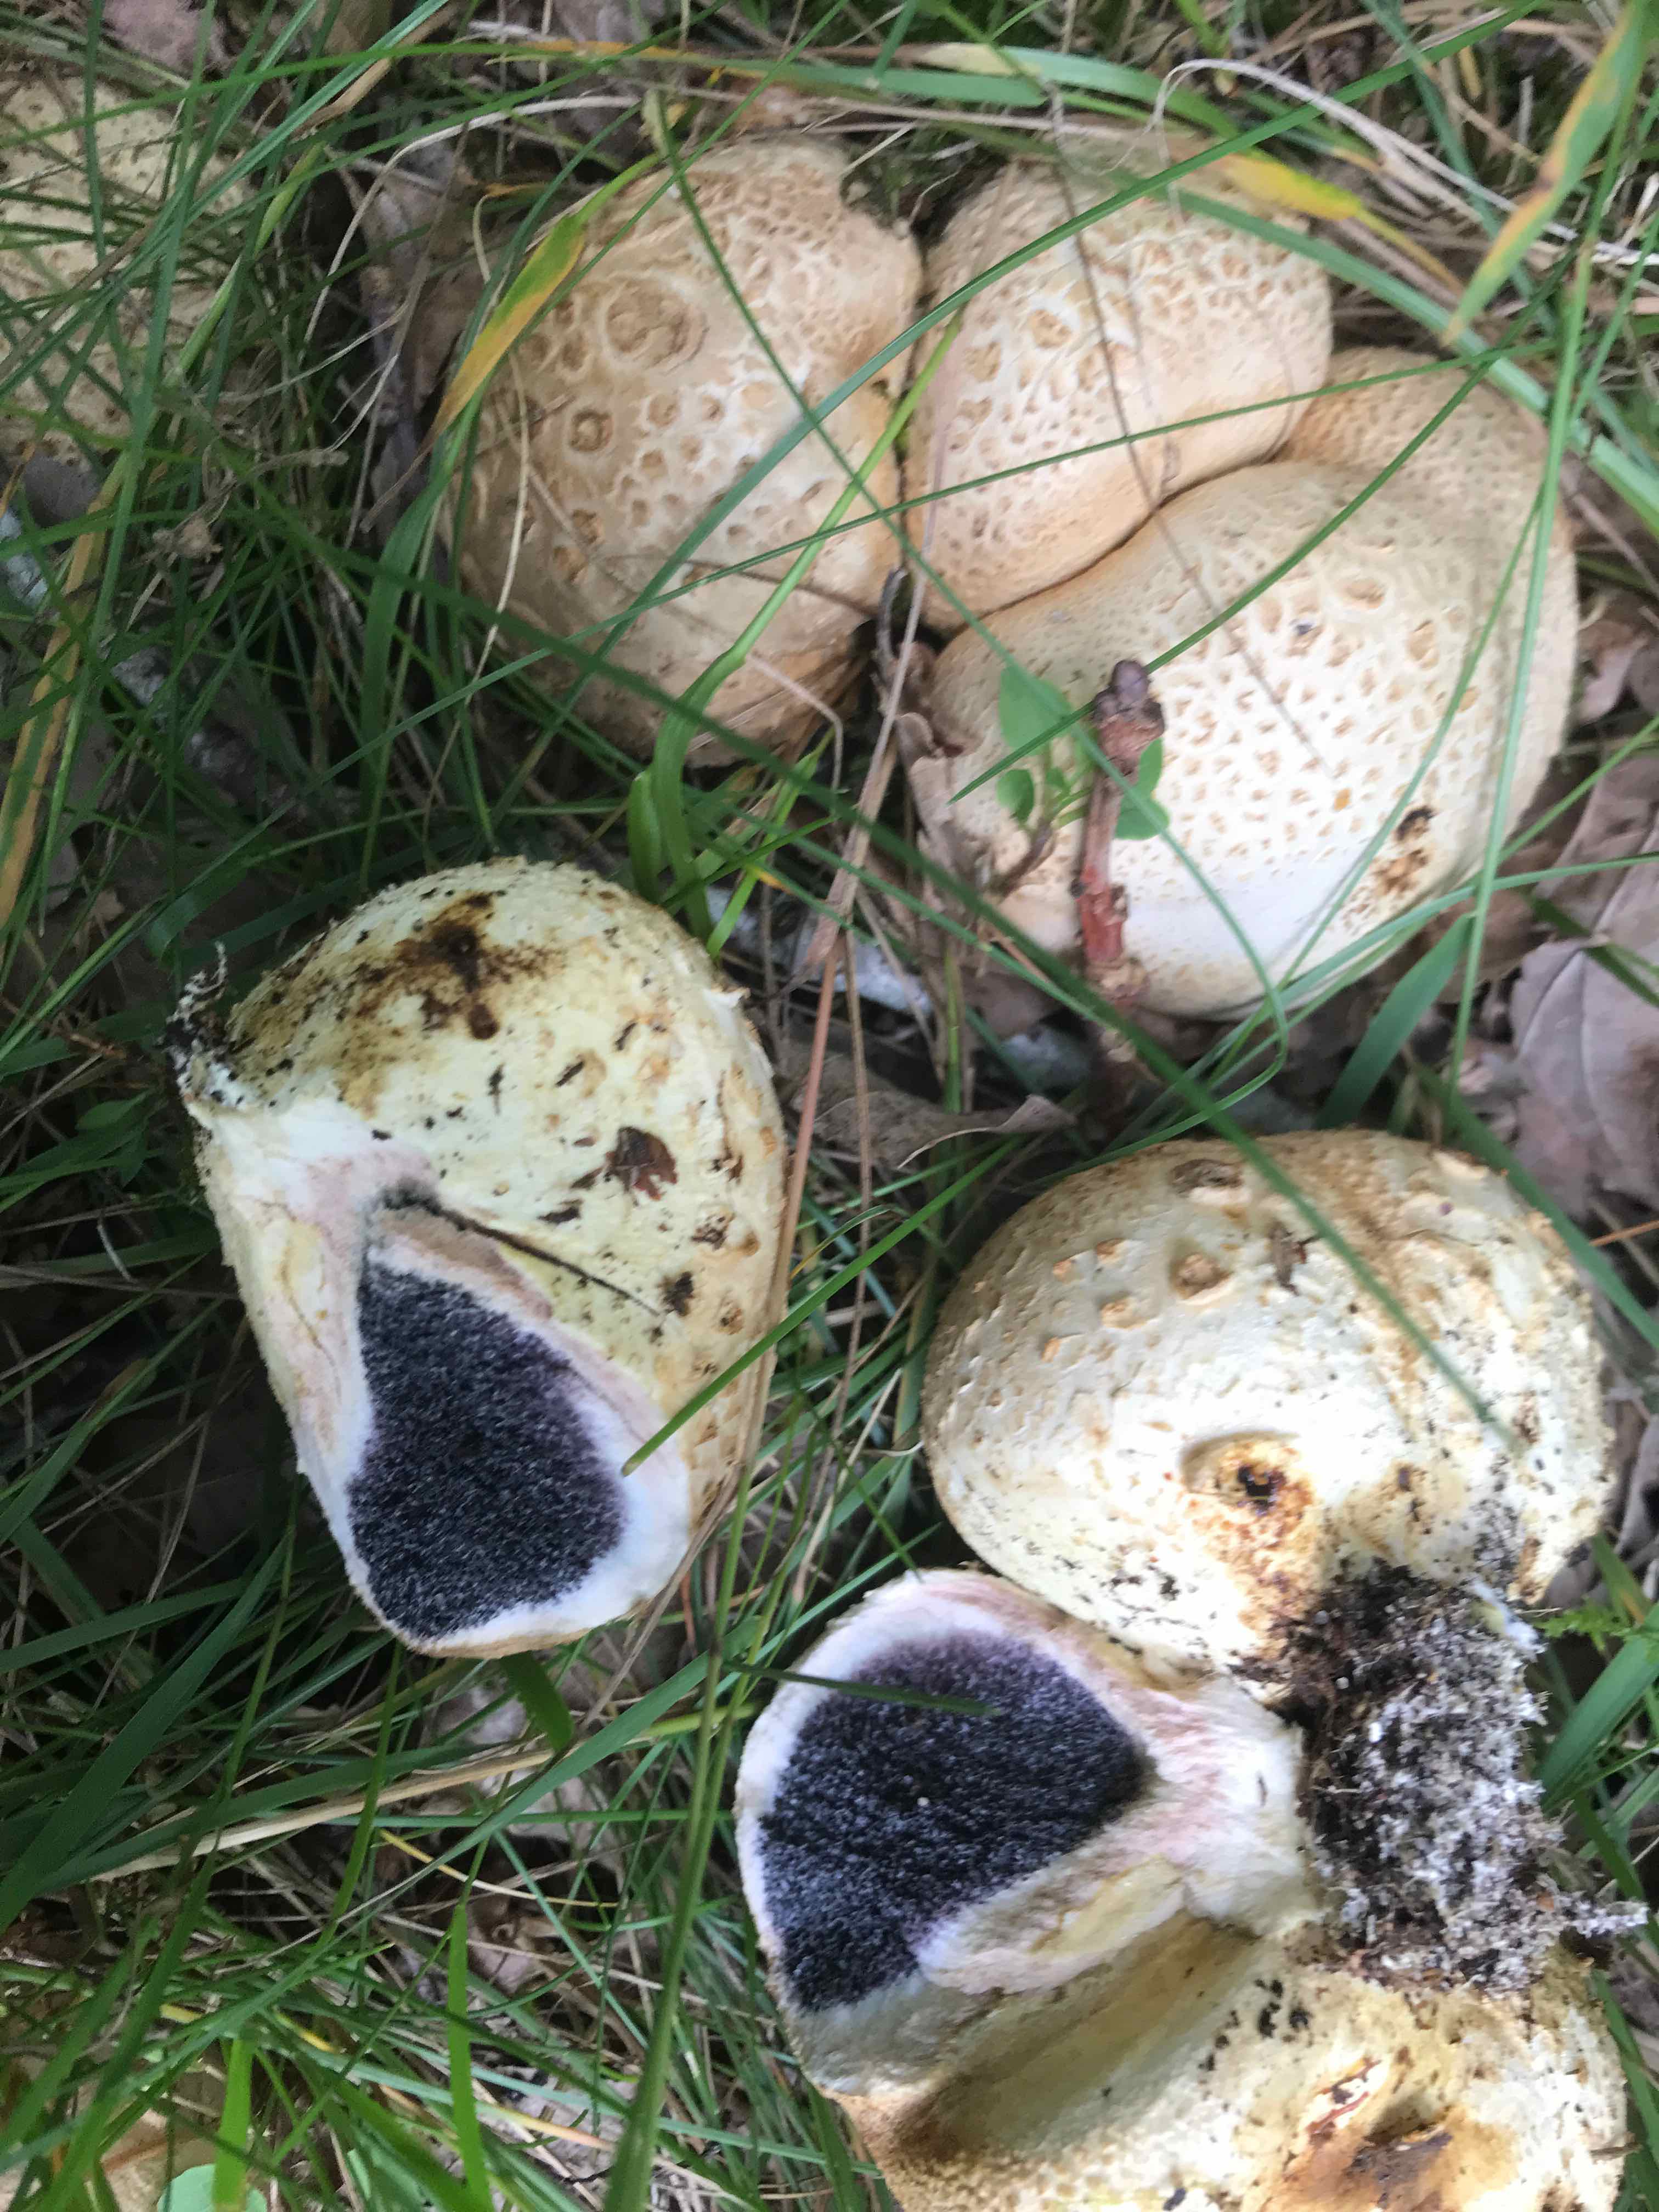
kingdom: Fungi
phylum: Basidiomycota
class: Agaricomycetes
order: Boletales
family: Sclerodermataceae
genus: Scleroderma
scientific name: Scleroderma citrinum
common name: almindelig bruskbold
